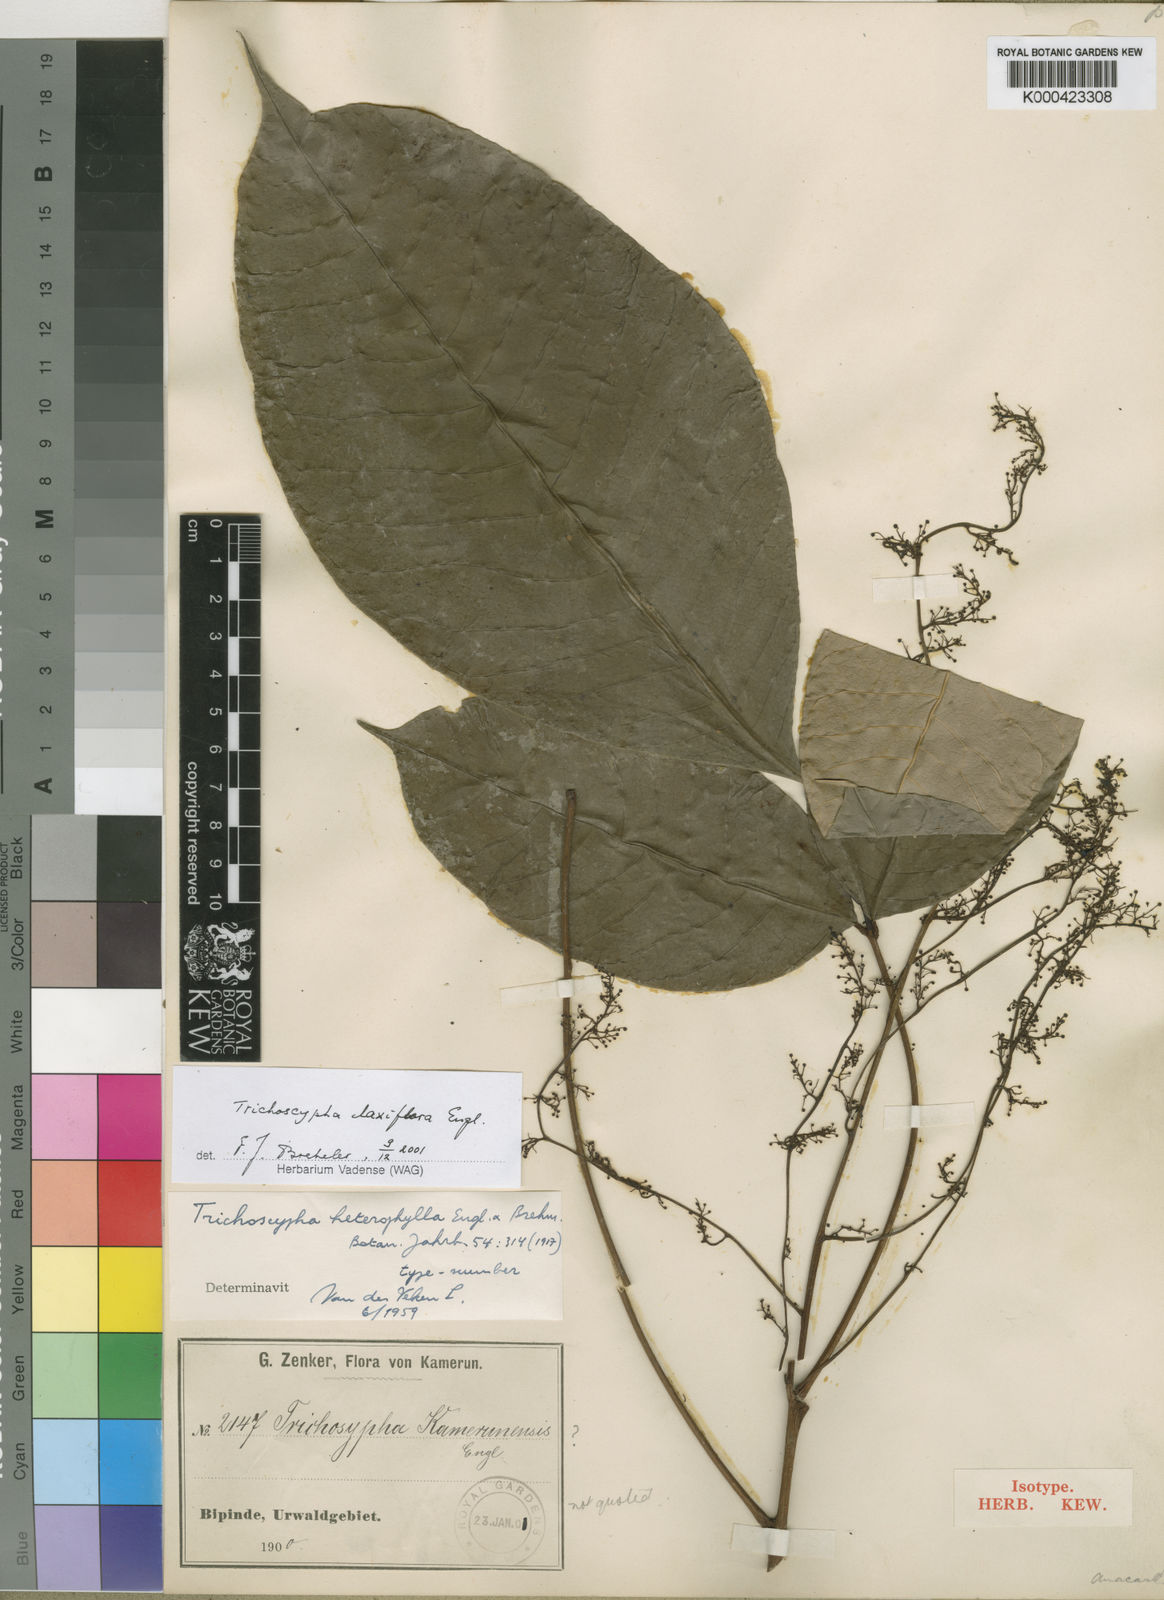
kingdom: Plantae
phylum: Tracheophyta
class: Magnoliopsida
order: Sapindales
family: Anacardiaceae
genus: Trichoscypha
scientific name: Trichoscypha laxiflora
